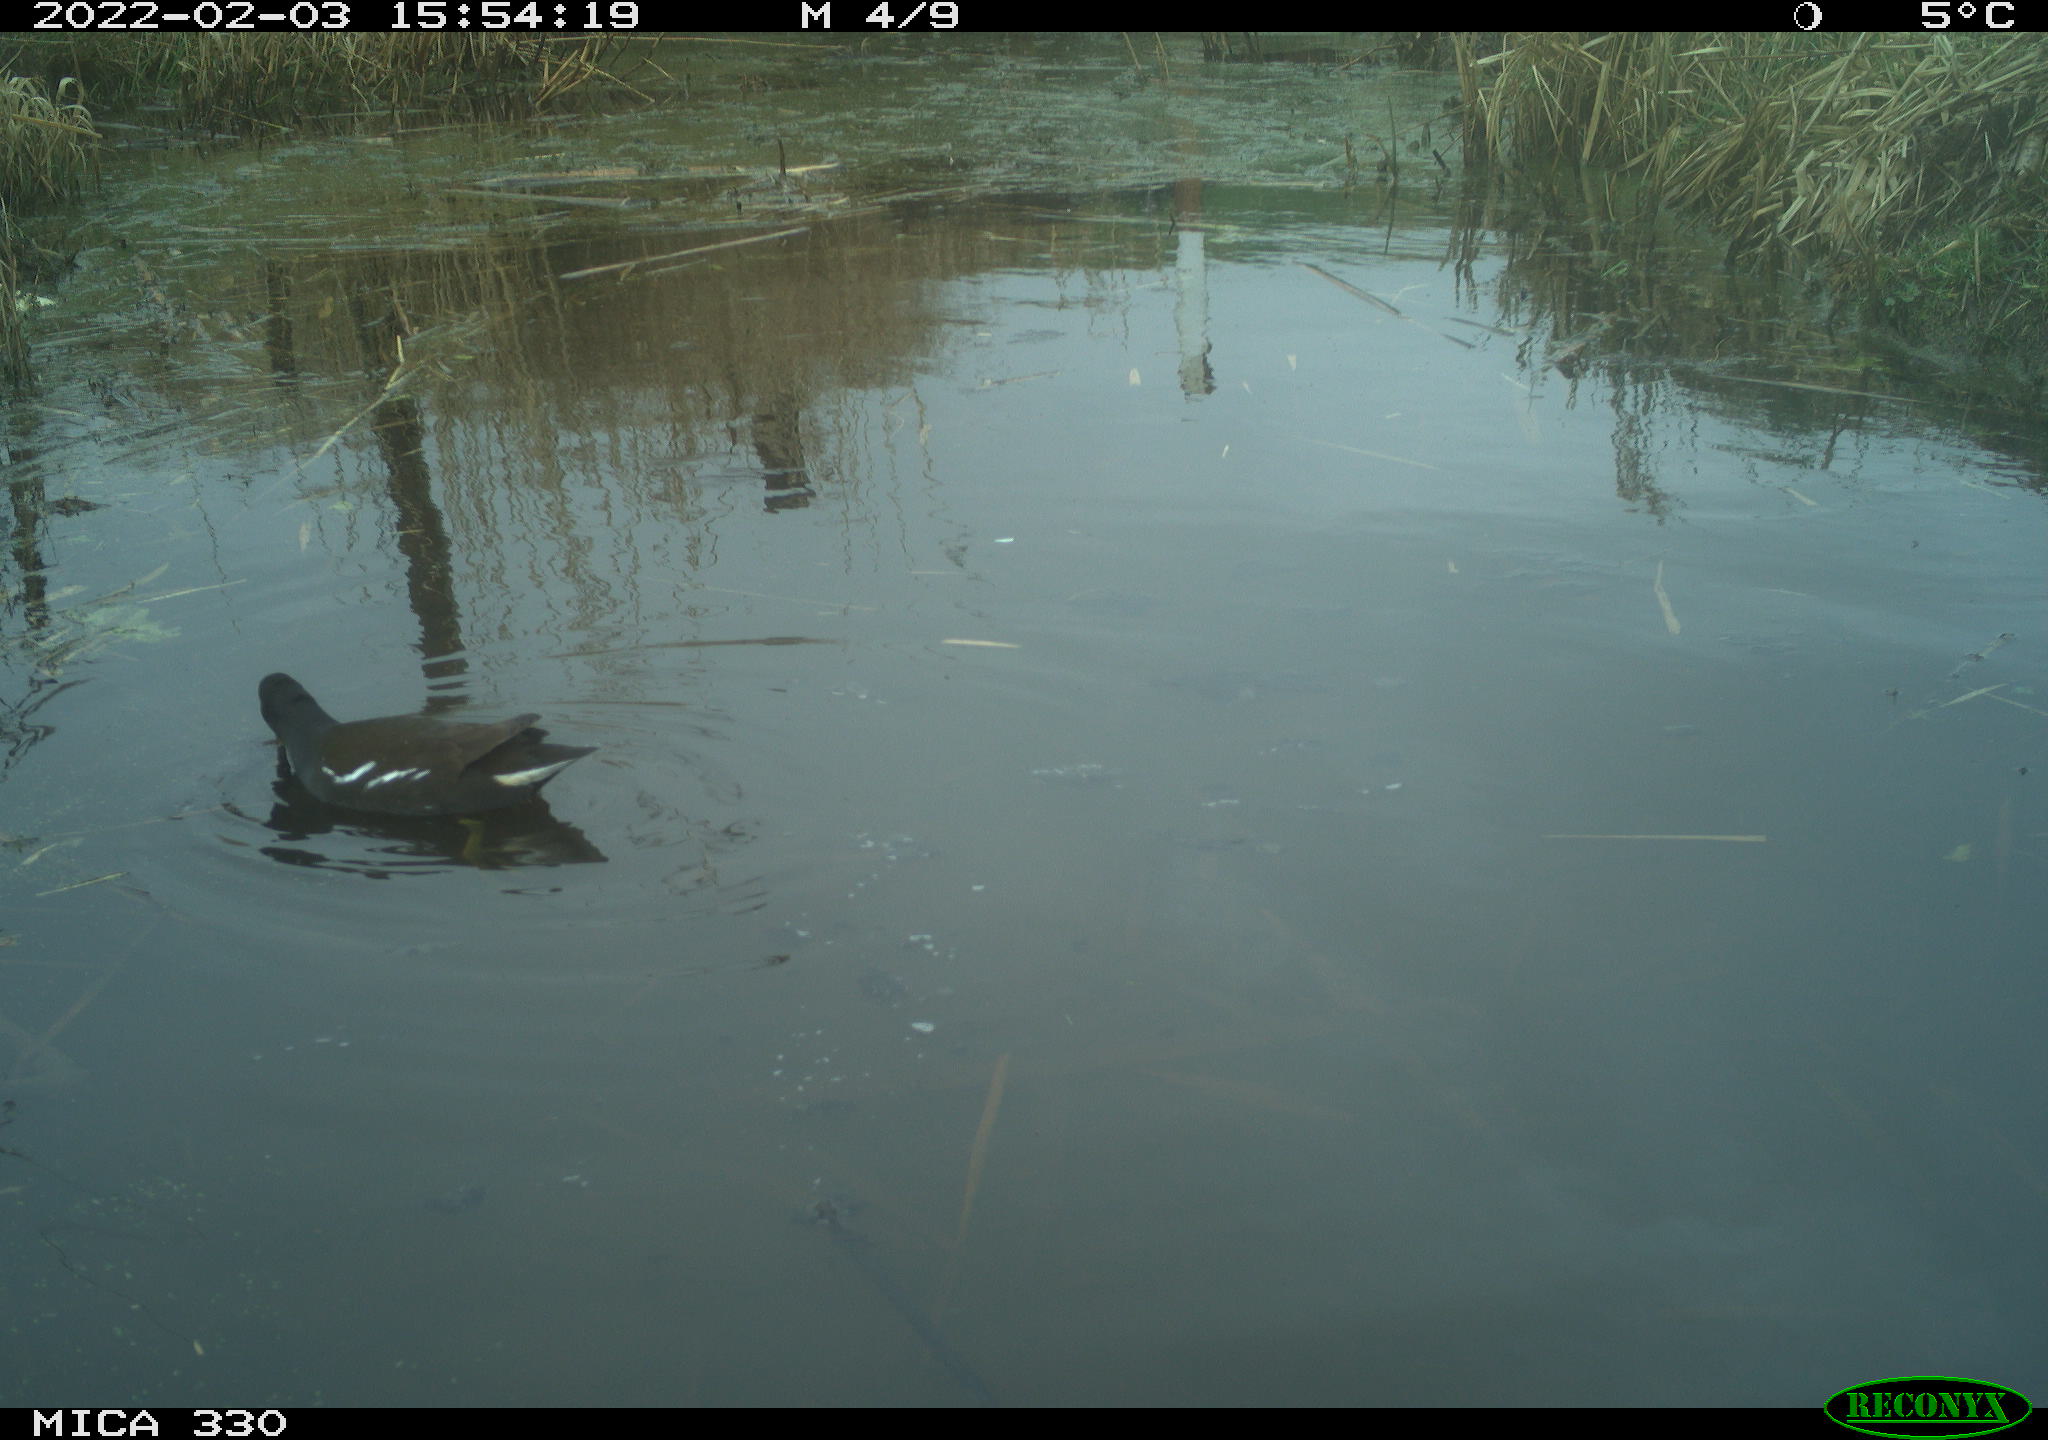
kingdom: Animalia
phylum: Chordata
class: Aves
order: Gruiformes
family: Rallidae
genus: Gallinula
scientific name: Gallinula chloropus
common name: Common moorhen
